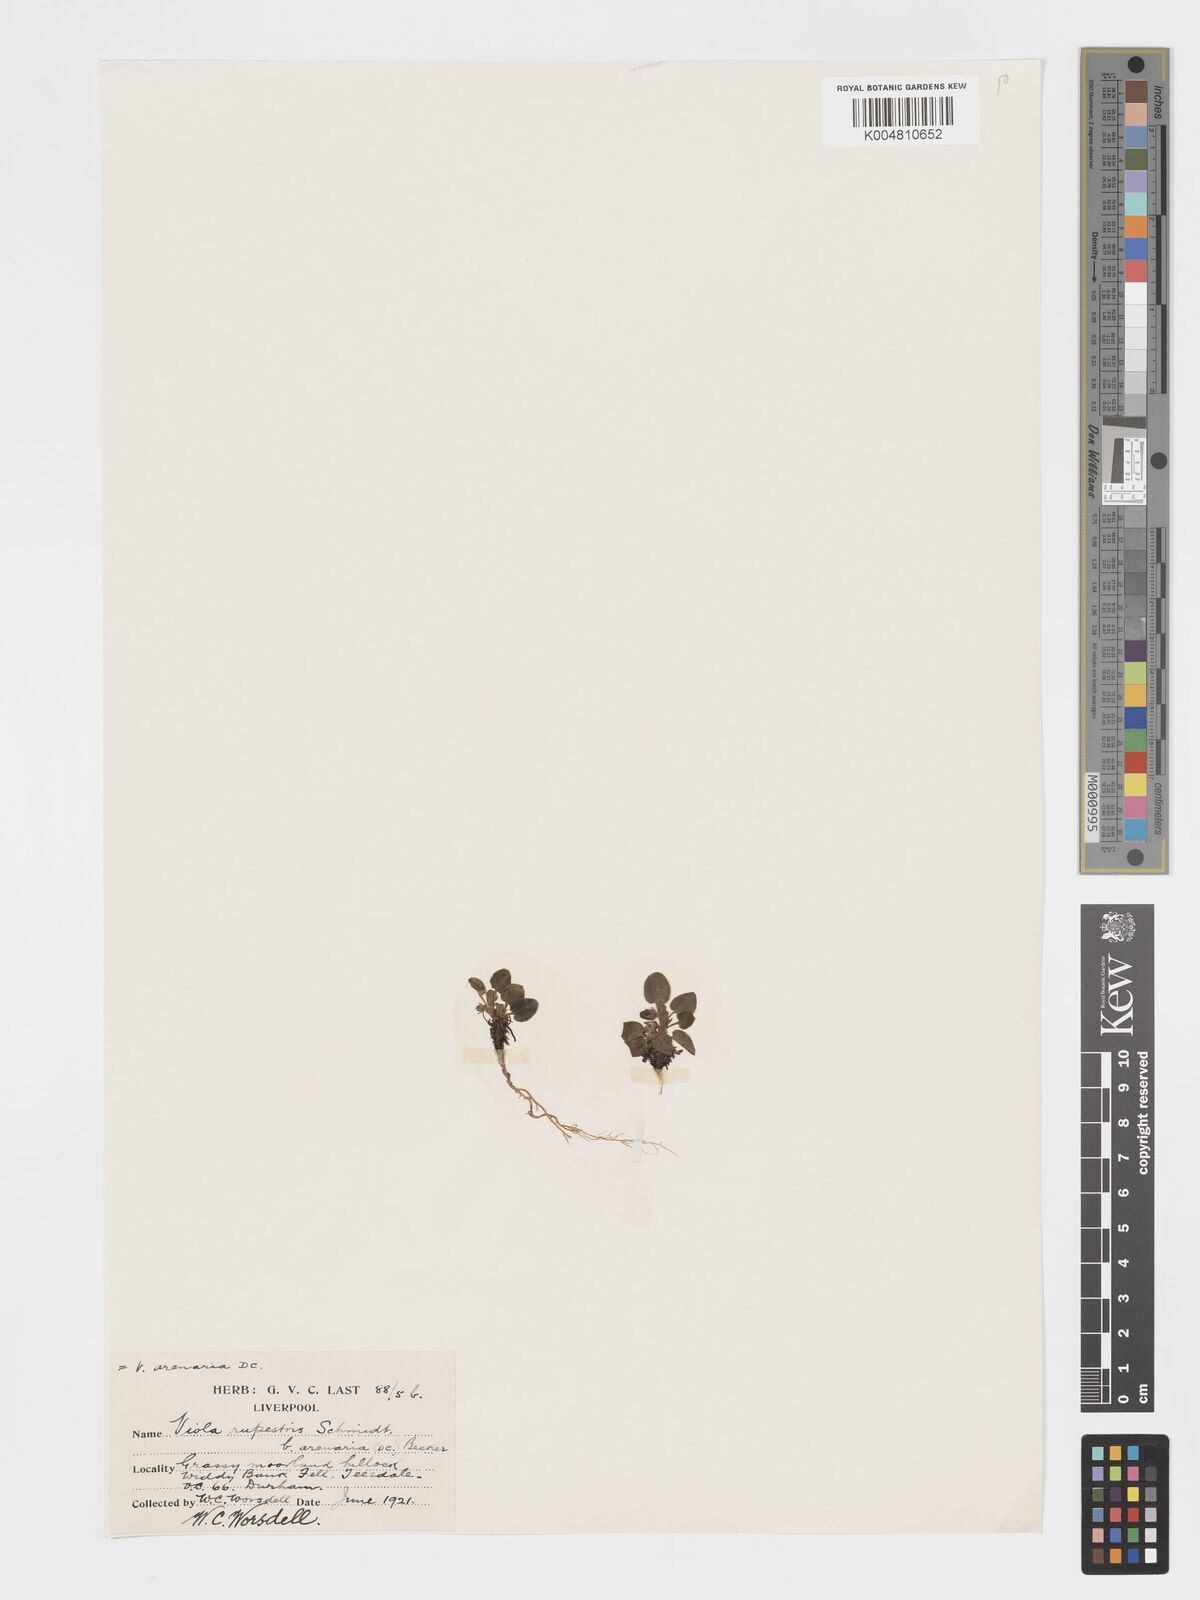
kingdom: Plantae
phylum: Tracheophyta
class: Magnoliopsida
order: Malpighiales
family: Violaceae
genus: Viola
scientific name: Viola rupestris
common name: Teesdale violet
